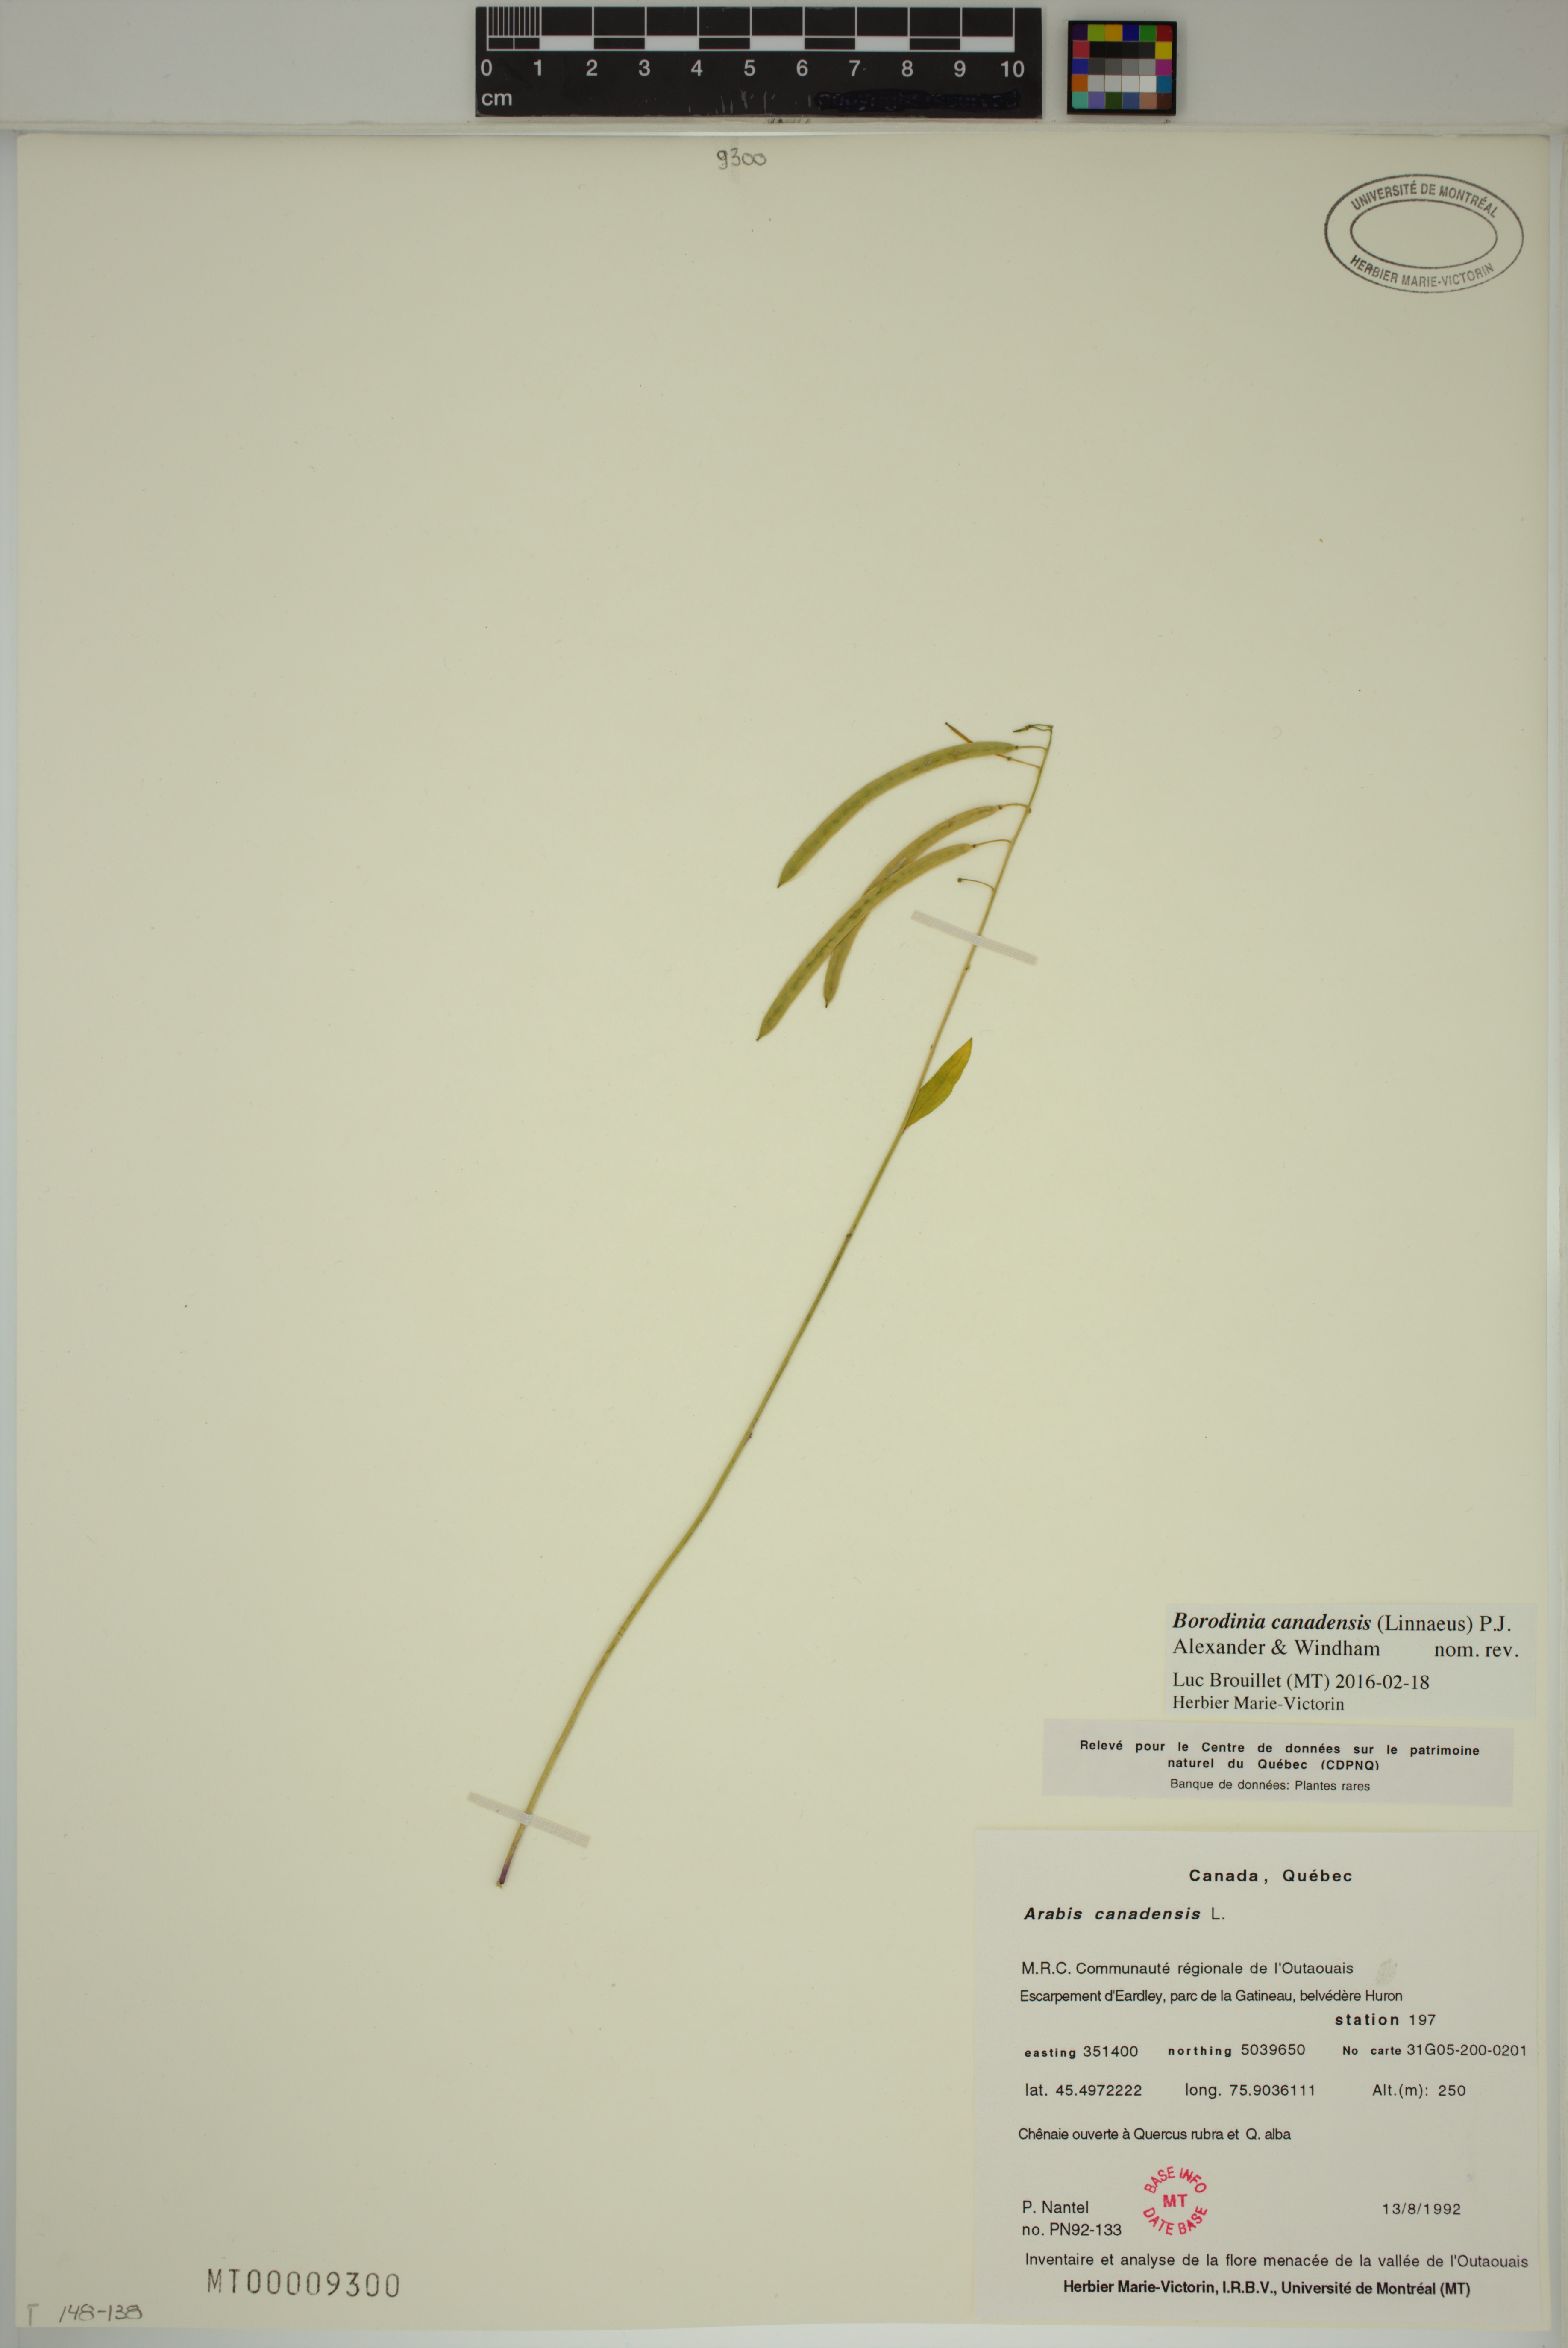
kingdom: Plantae
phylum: Tracheophyta
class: Magnoliopsida
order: Brassicales
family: Brassicaceae
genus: Borodinia
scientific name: Borodinia canadensis
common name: Sicklepod
